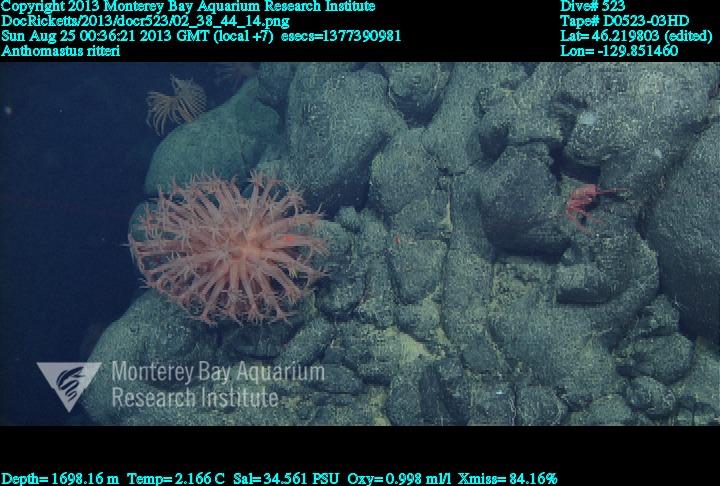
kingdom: Animalia
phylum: Cnidaria
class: Anthozoa
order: Scleralcyonacea
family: Coralliidae
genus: Heteropolypus
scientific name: Heteropolypus ritteri
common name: Ritter's soft coral
